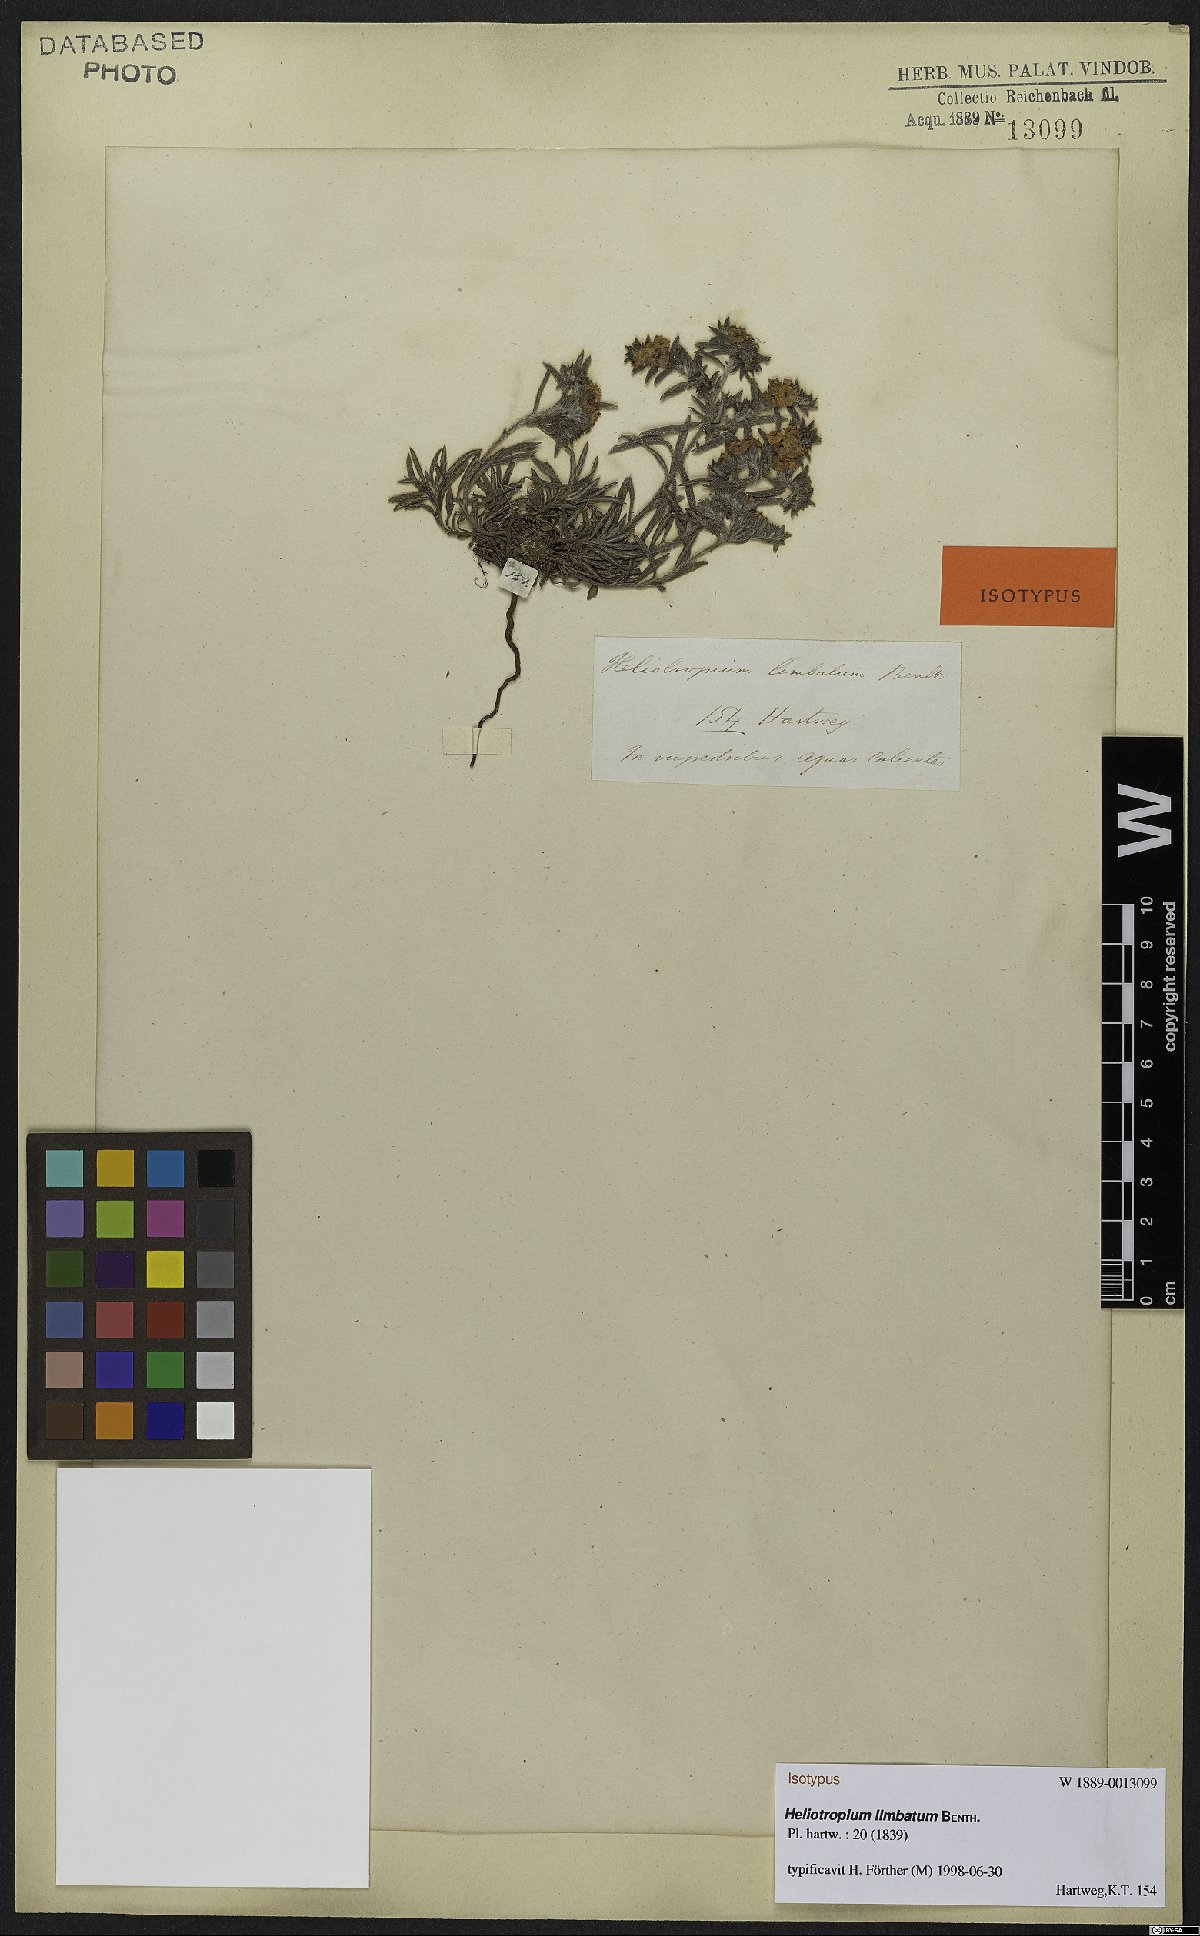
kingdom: Plantae
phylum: Tracheophyta
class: Magnoliopsida
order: Boraginales
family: Heliotropiaceae
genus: Euploca
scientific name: Euploca limbata
